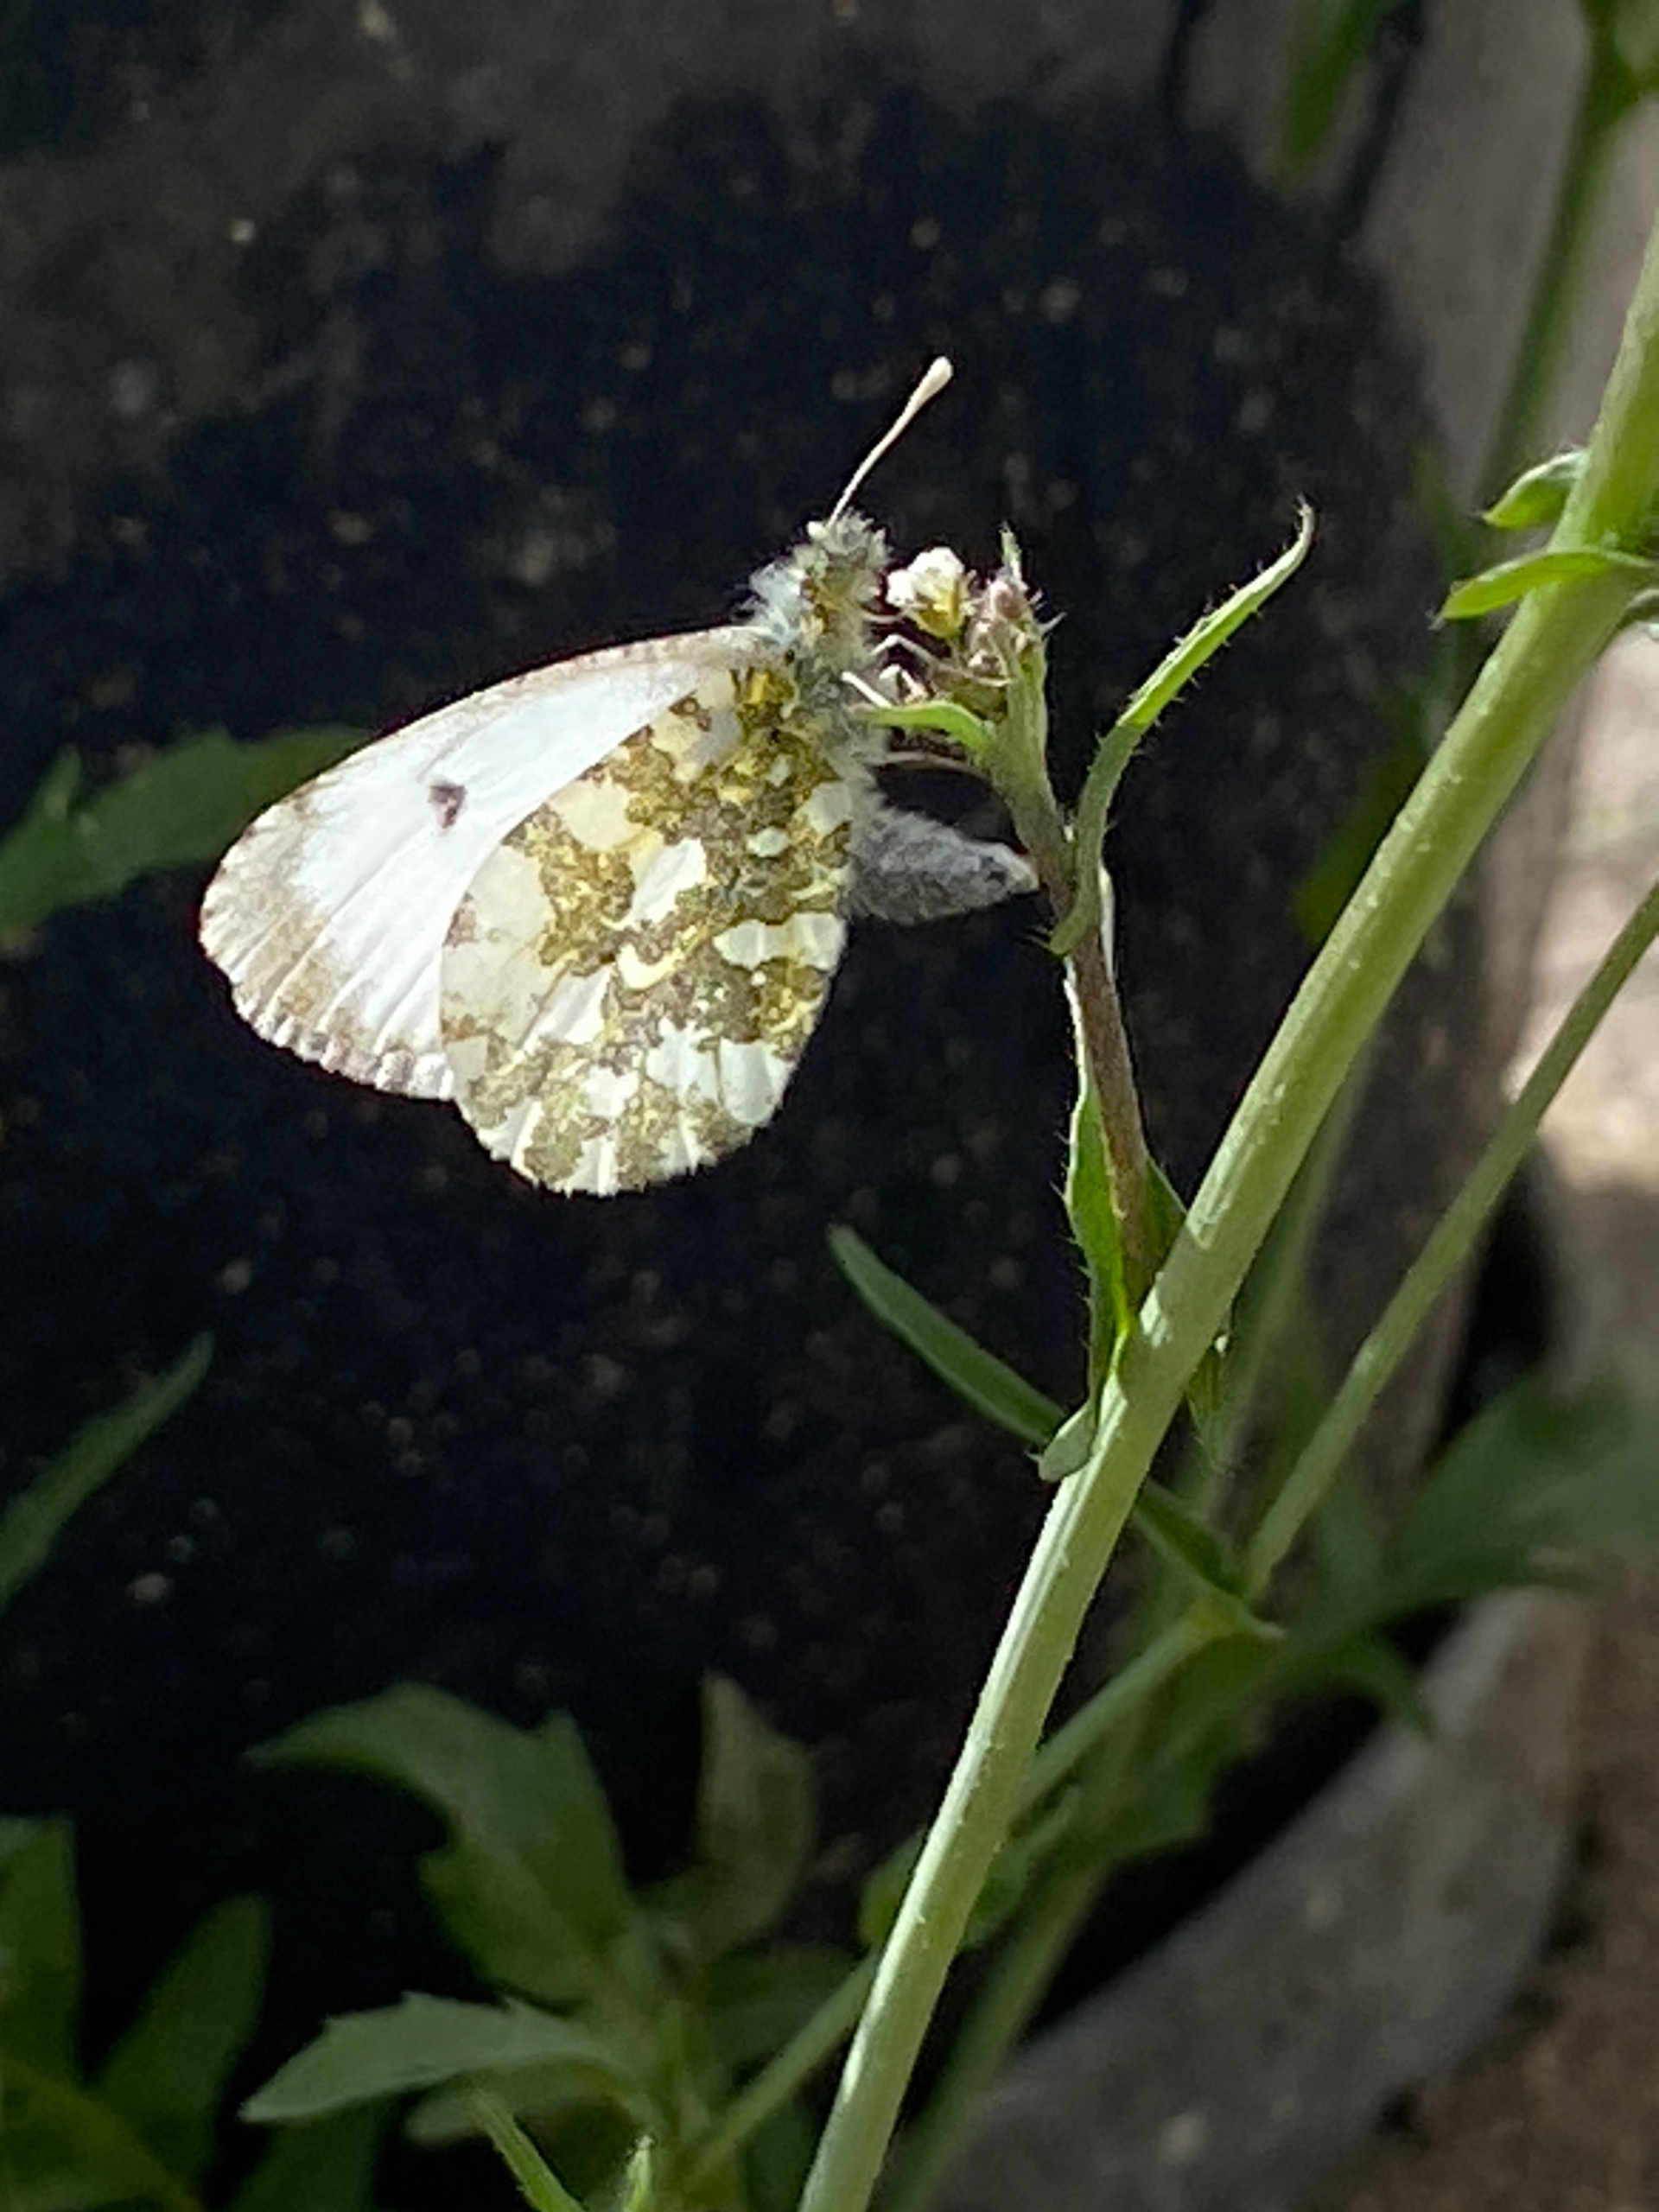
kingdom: Animalia
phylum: Arthropoda
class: Insecta
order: Lepidoptera
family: Pieridae
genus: Anthocharis
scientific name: Anthocharis cardamines
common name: Aurora
